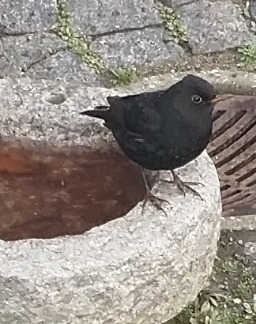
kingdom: Animalia
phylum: Chordata
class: Aves
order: Passeriformes
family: Turdidae
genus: Turdus
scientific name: Turdus merula
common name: Solsort
